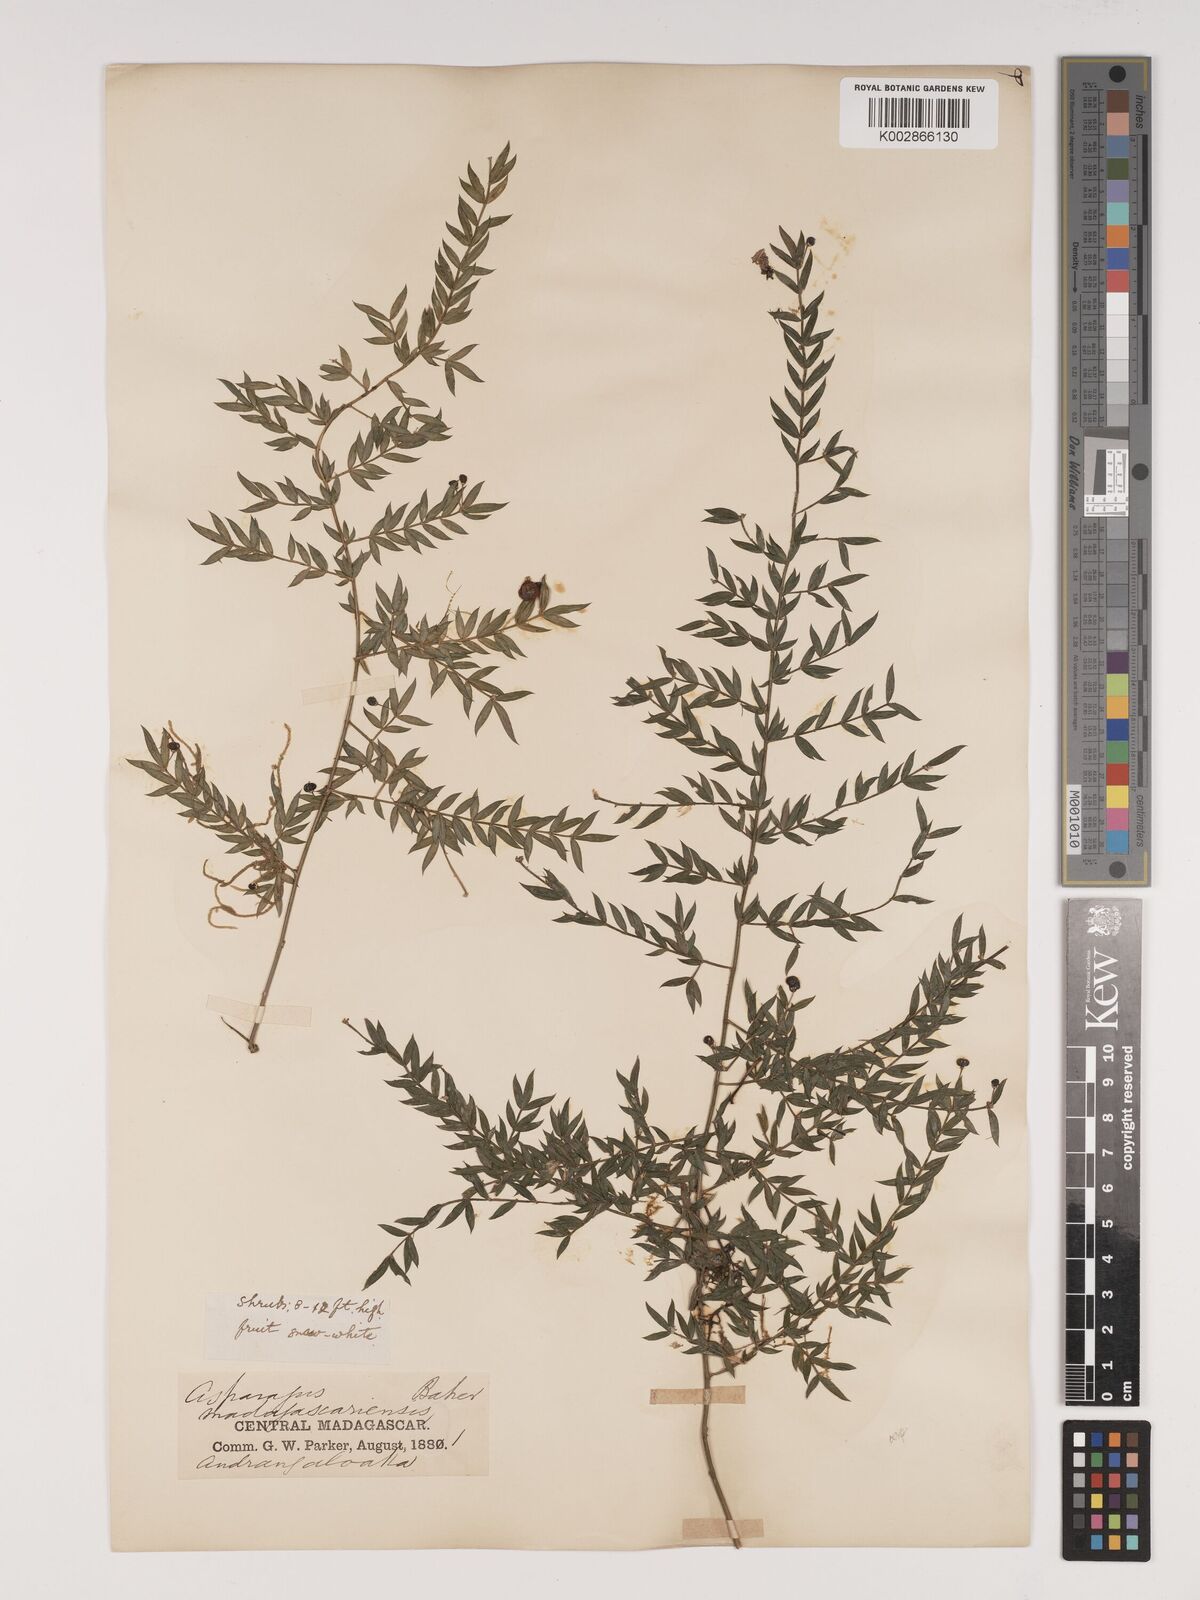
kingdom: Plantae
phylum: Tracheophyta
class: Liliopsida
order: Asparagales
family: Asparagaceae
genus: Asparagus
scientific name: Asparagus simulans
